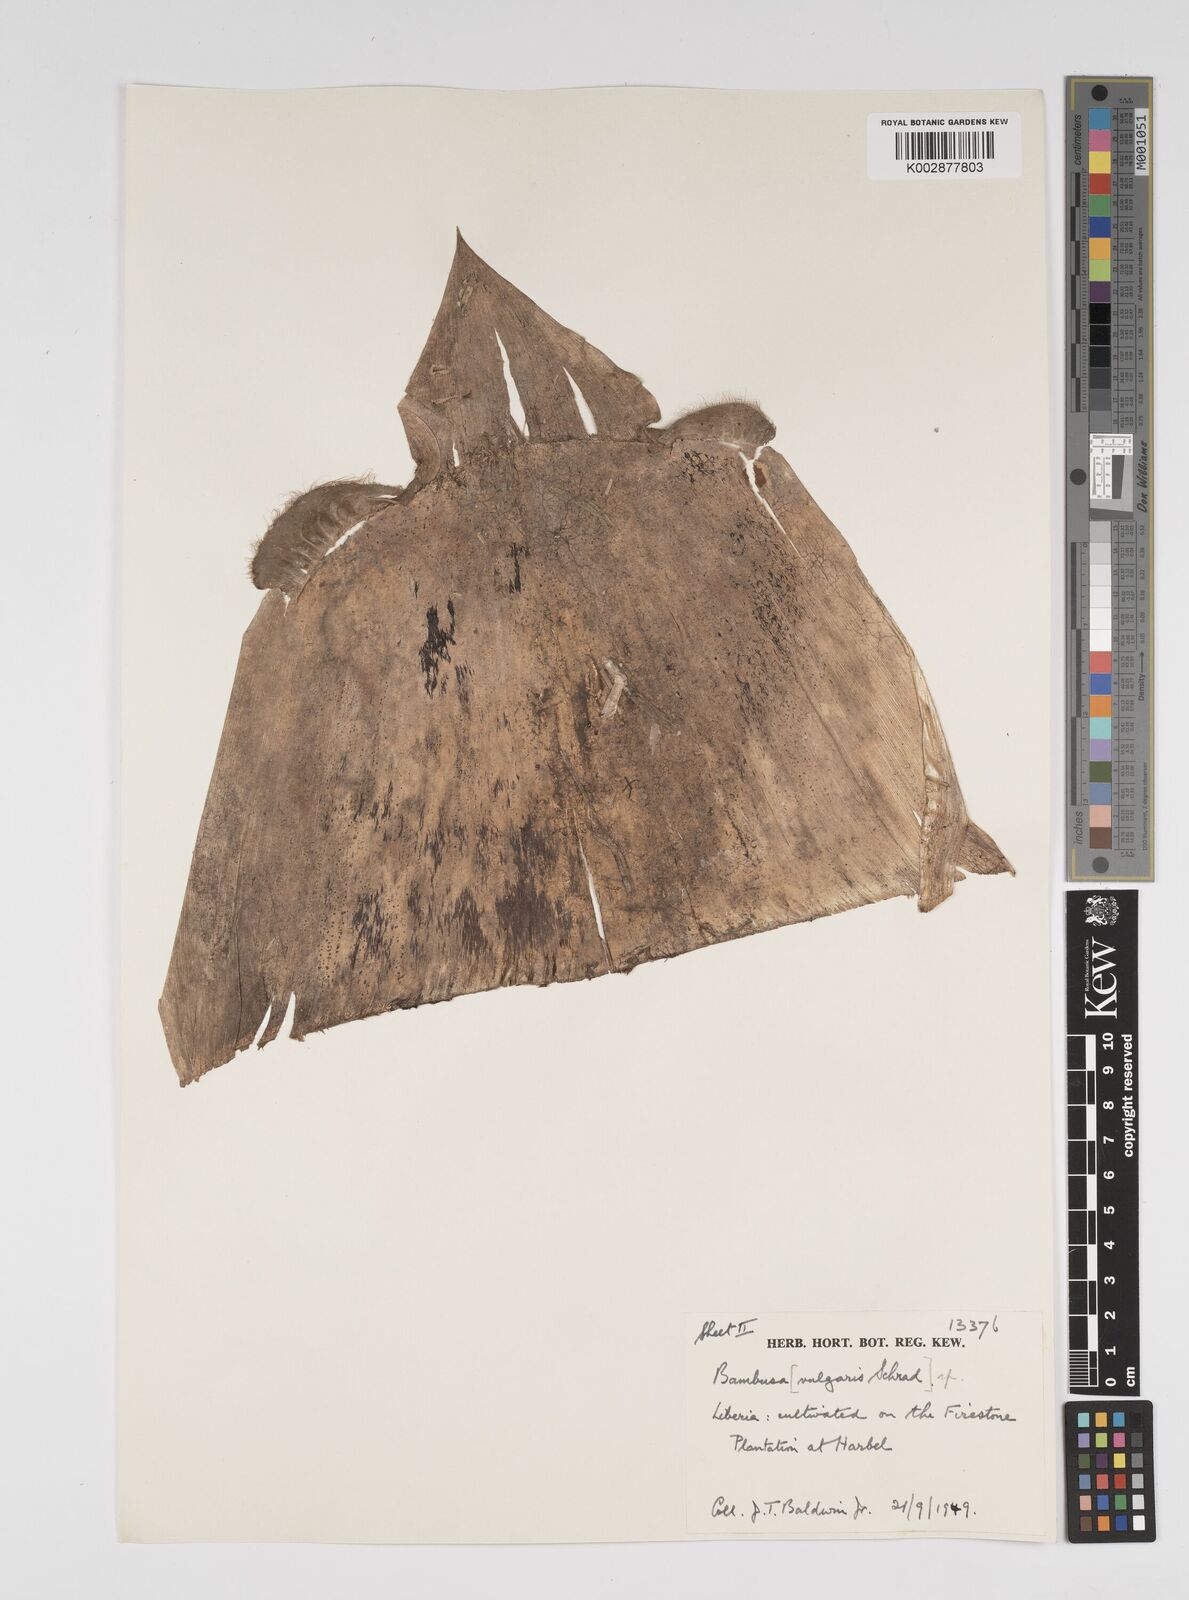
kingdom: Plantae
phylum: Tracheophyta
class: Liliopsida
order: Poales
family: Poaceae
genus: Bambusa
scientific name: Bambusa tulda
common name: Bengal bamboo
